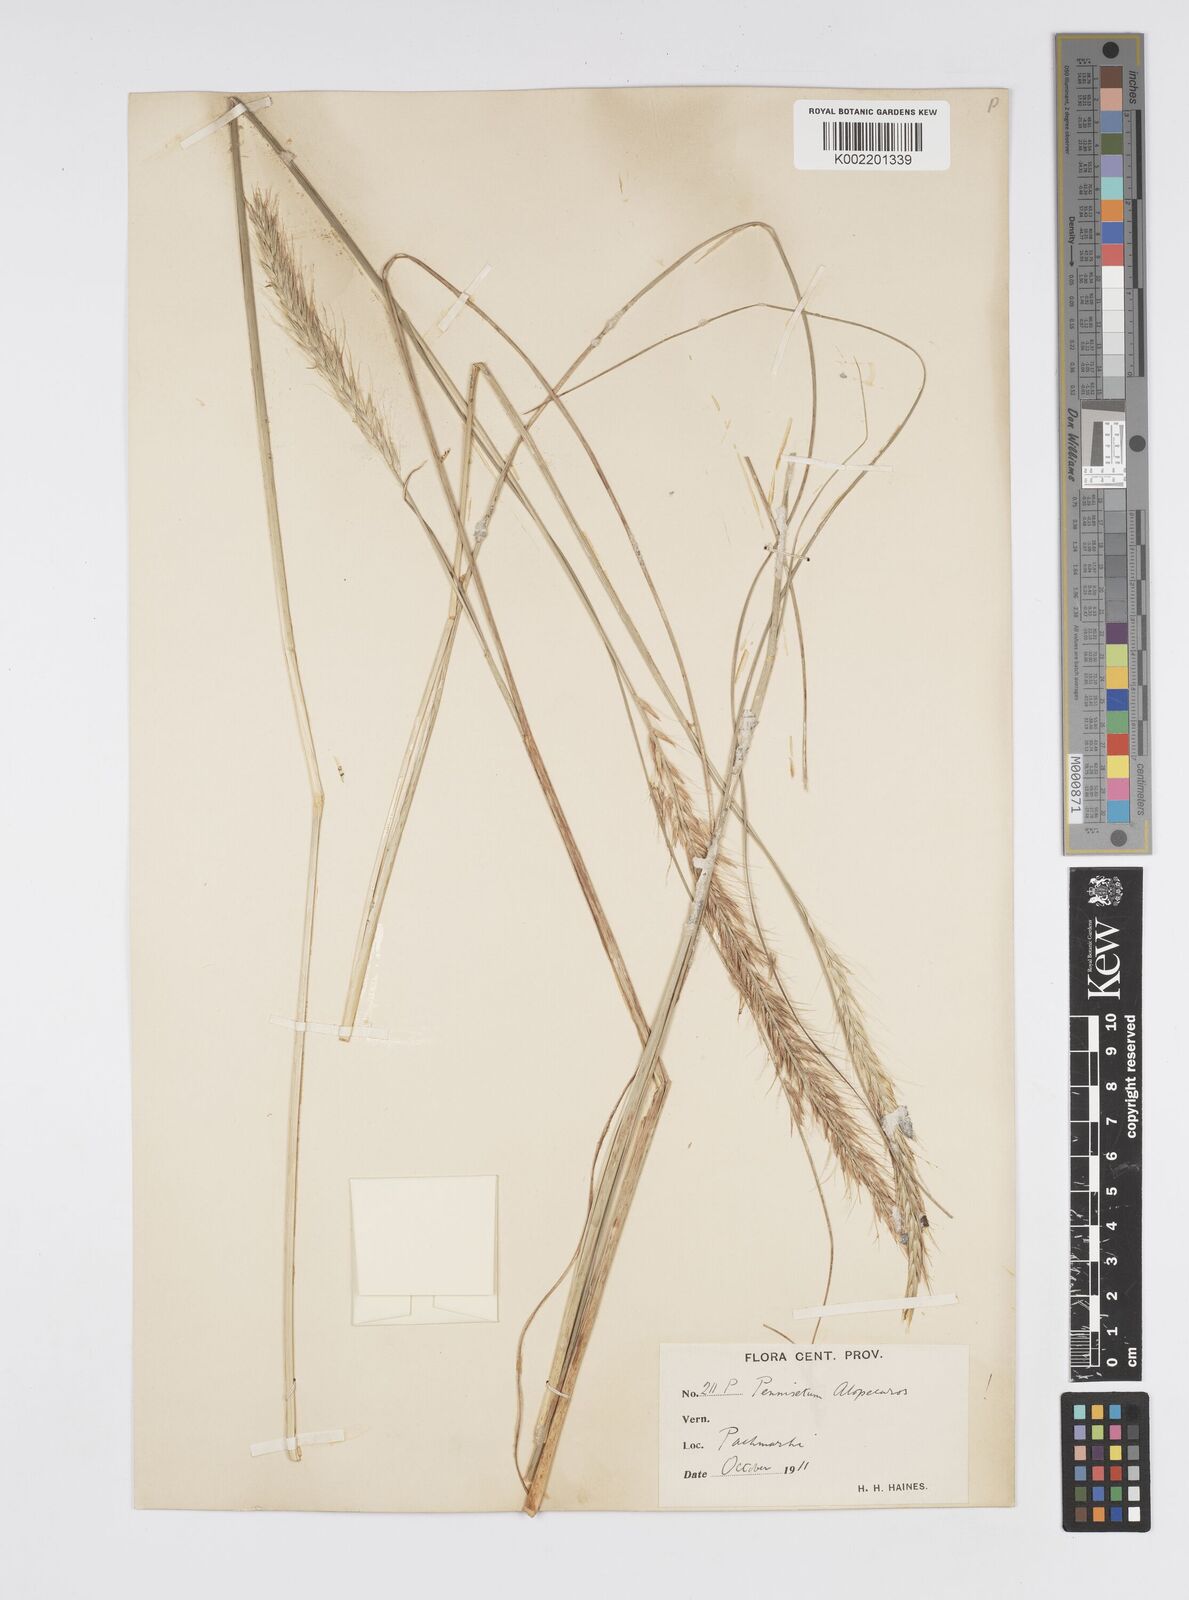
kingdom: Plantae
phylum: Tracheophyta
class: Liliopsida
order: Poales
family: Poaceae
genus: Cenchrus
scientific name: Cenchrus hohenackeri
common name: Moya grass
